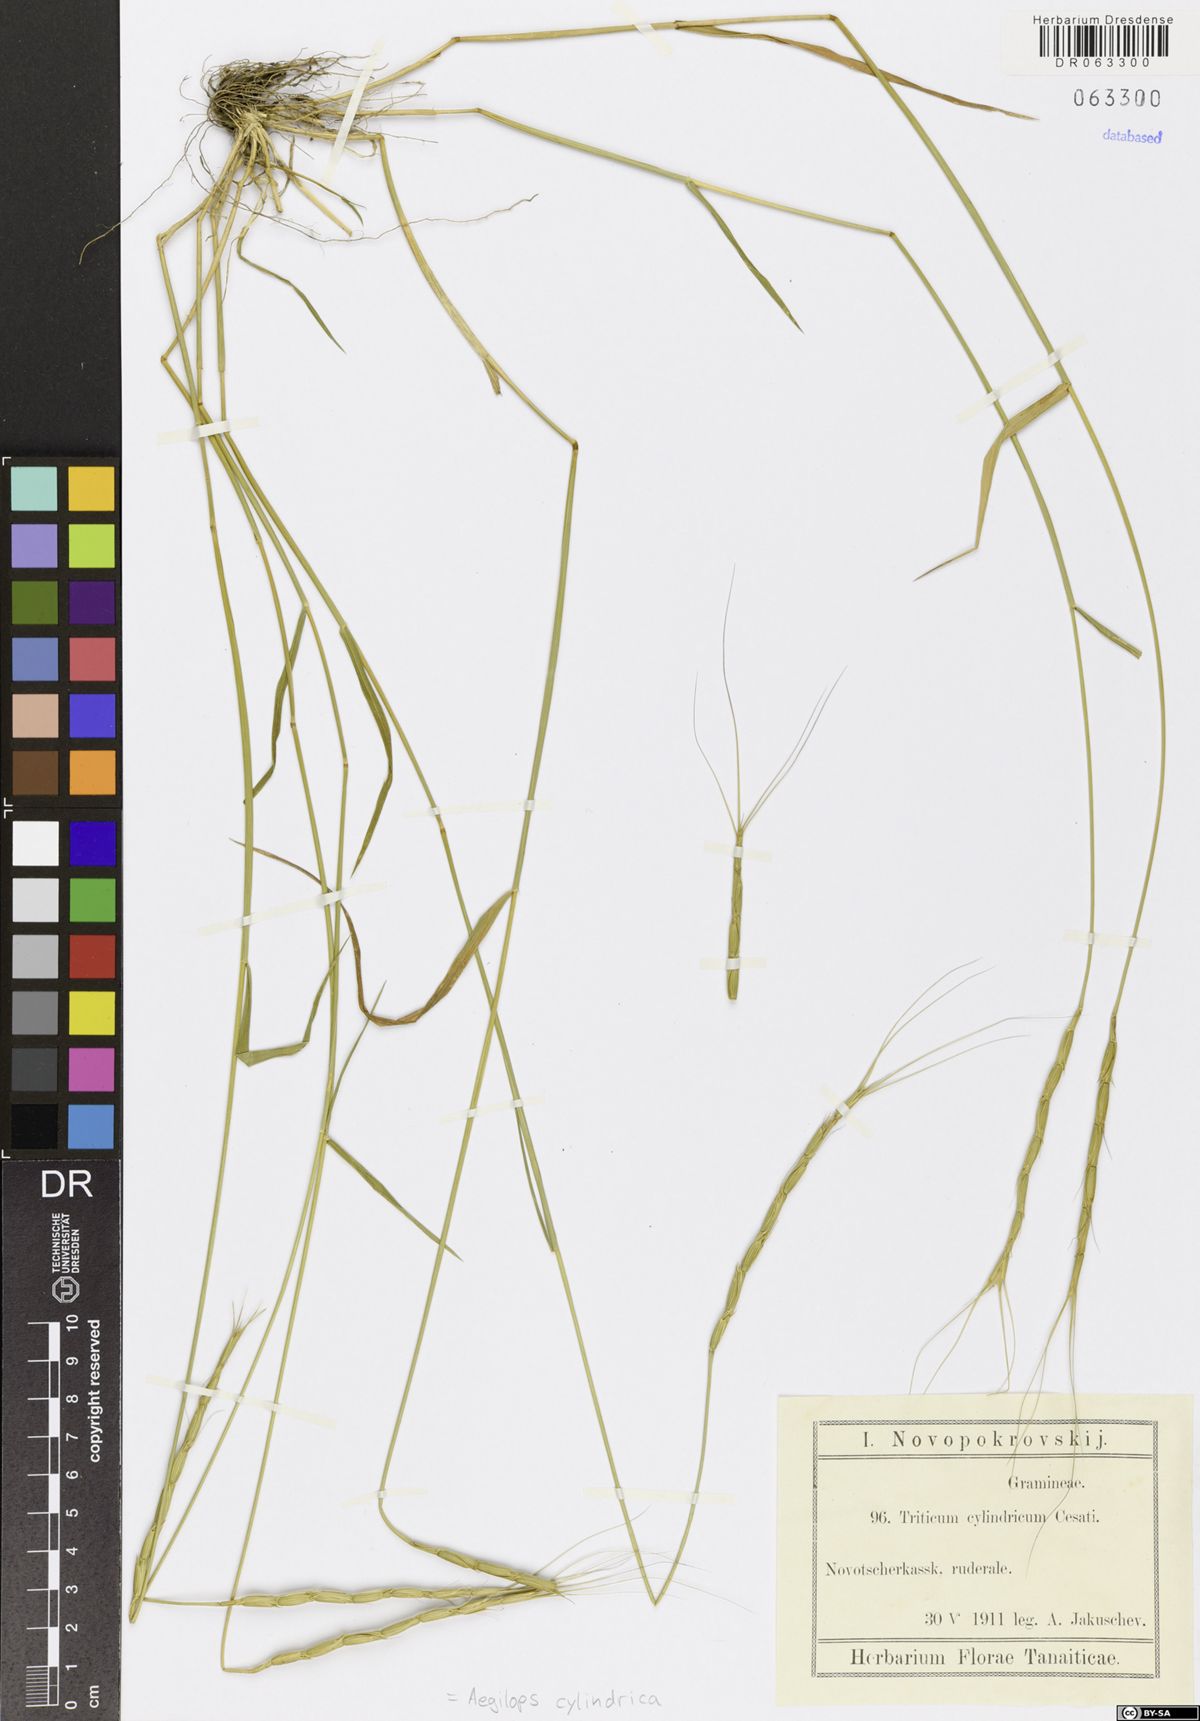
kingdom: Plantae
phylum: Tracheophyta
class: Liliopsida
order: Poales
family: Poaceae
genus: Aegilops
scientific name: Aegilops cylindrica
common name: Jointed goatgrass
